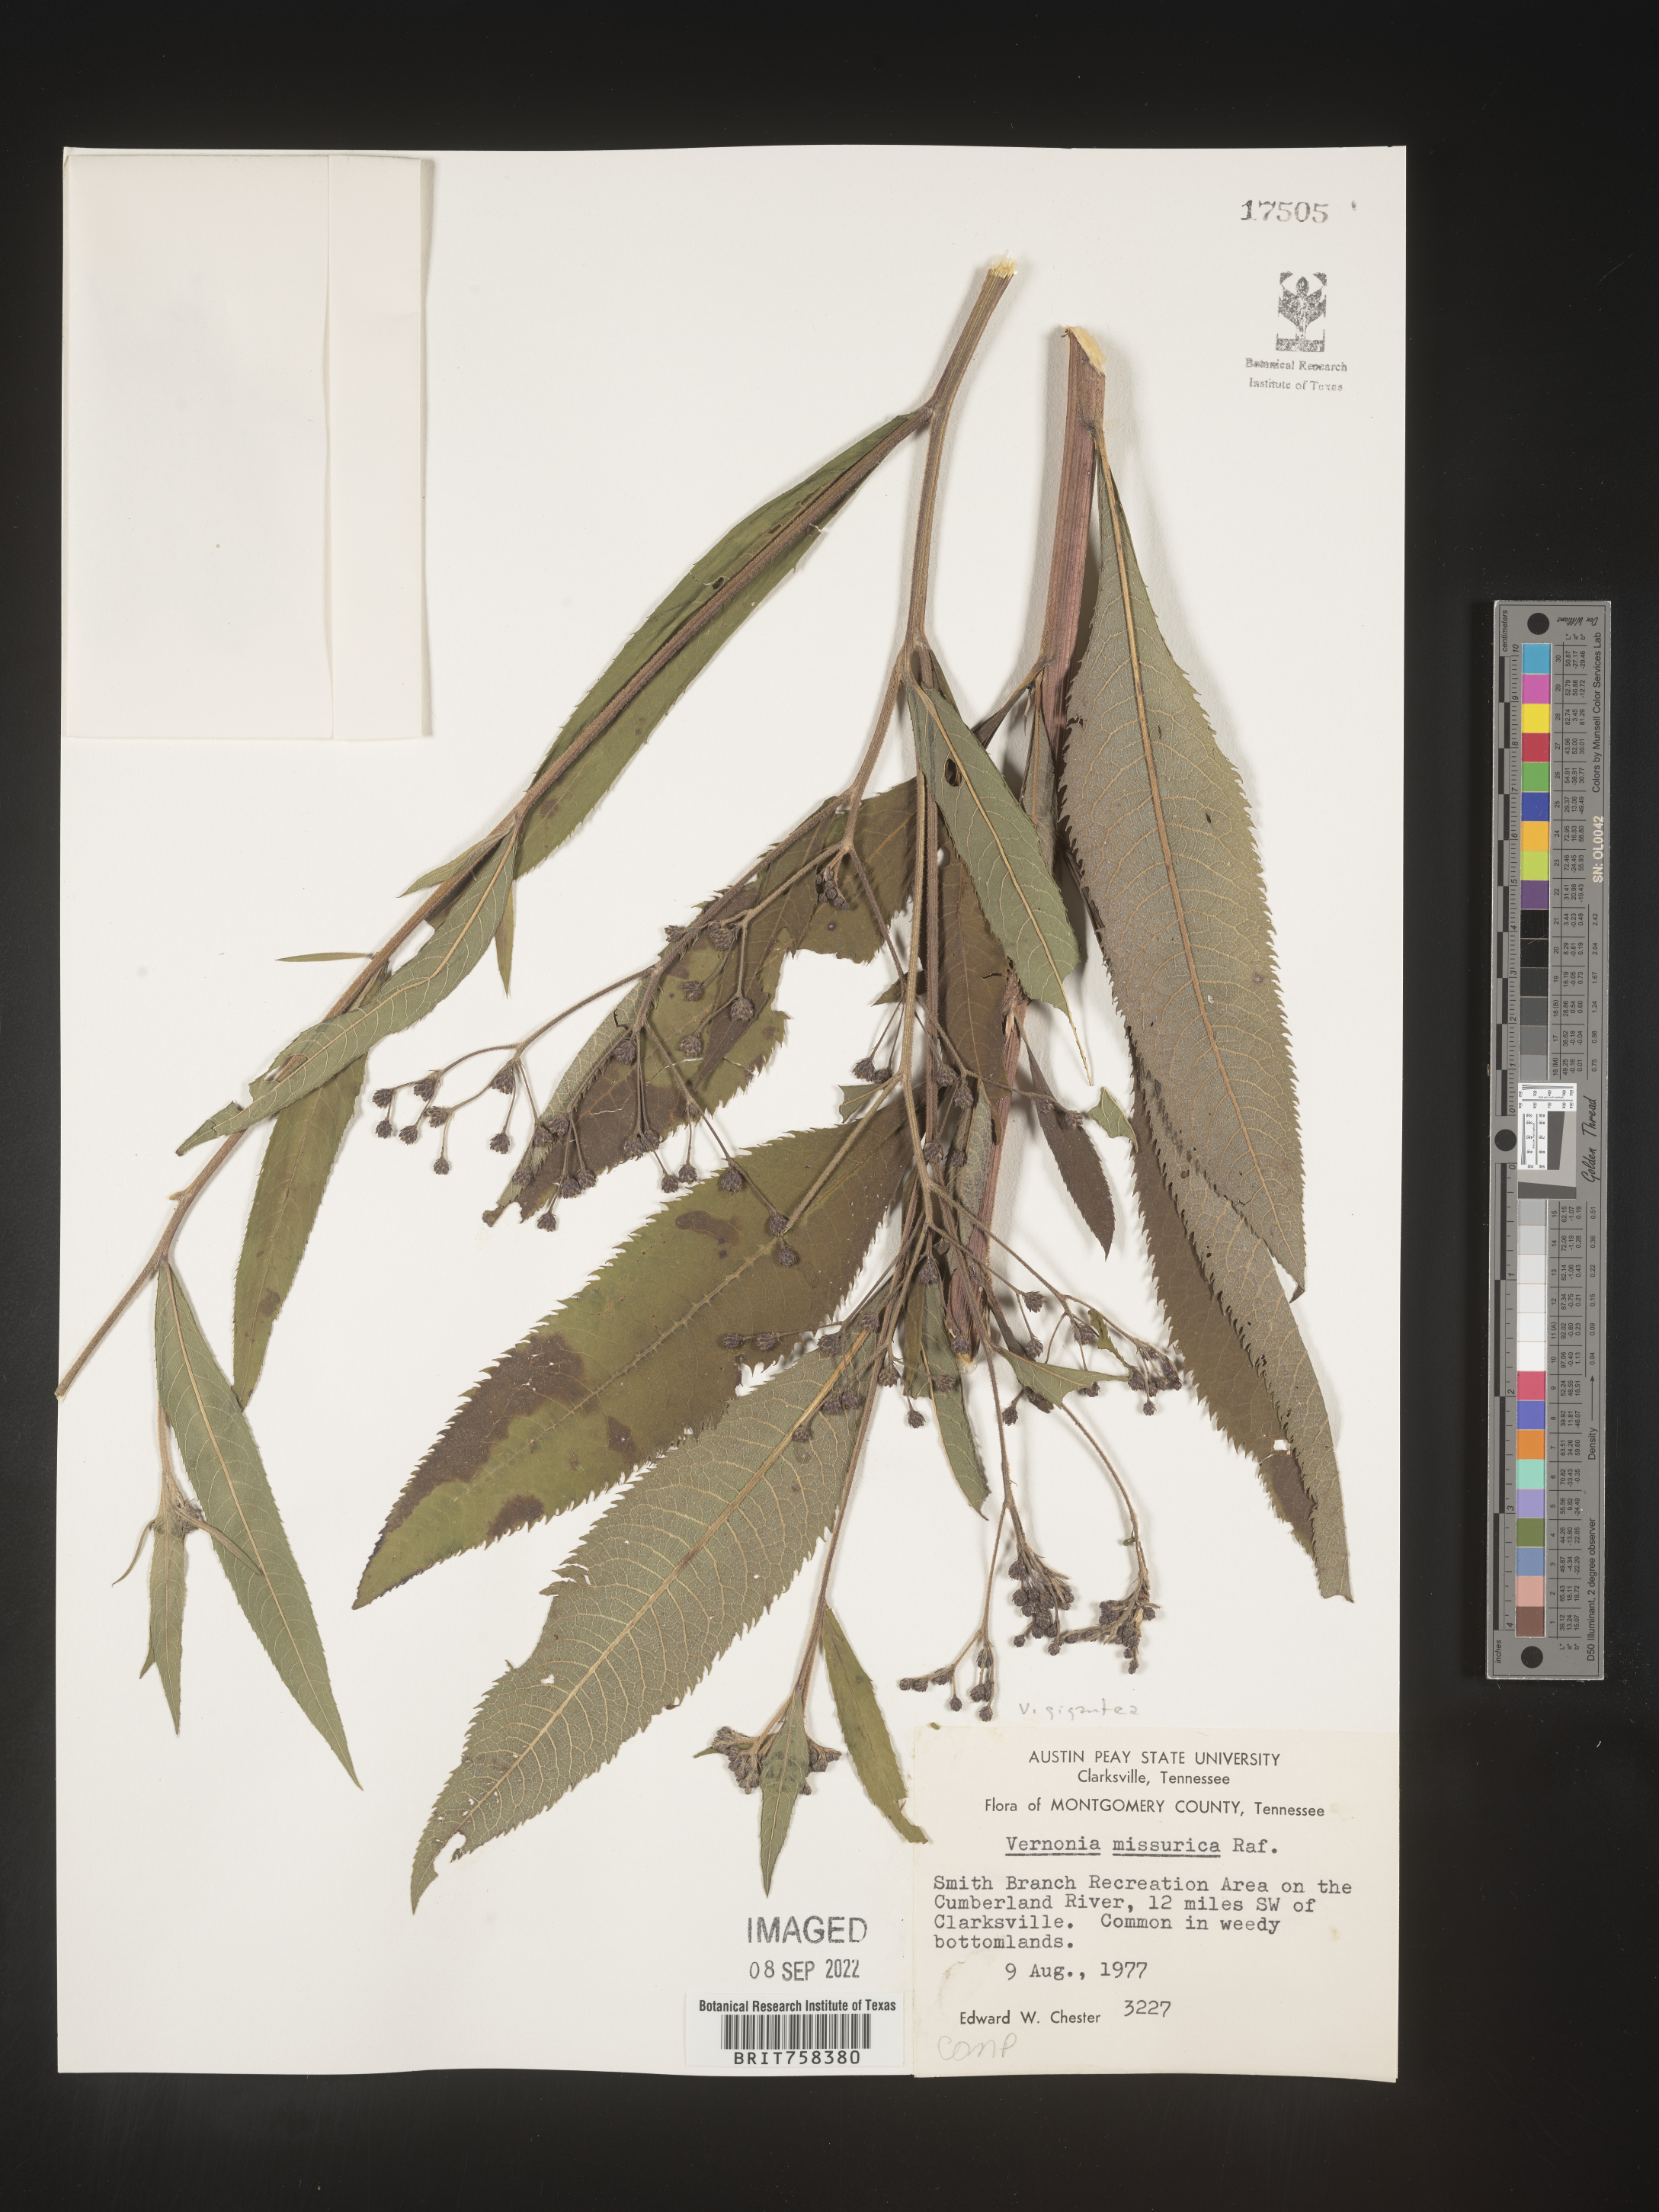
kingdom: Plantae
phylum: Tracheophyta
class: Magnoliopsida
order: Asterales
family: Asteraceae
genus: Vernonia
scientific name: Vernonia gigantea
